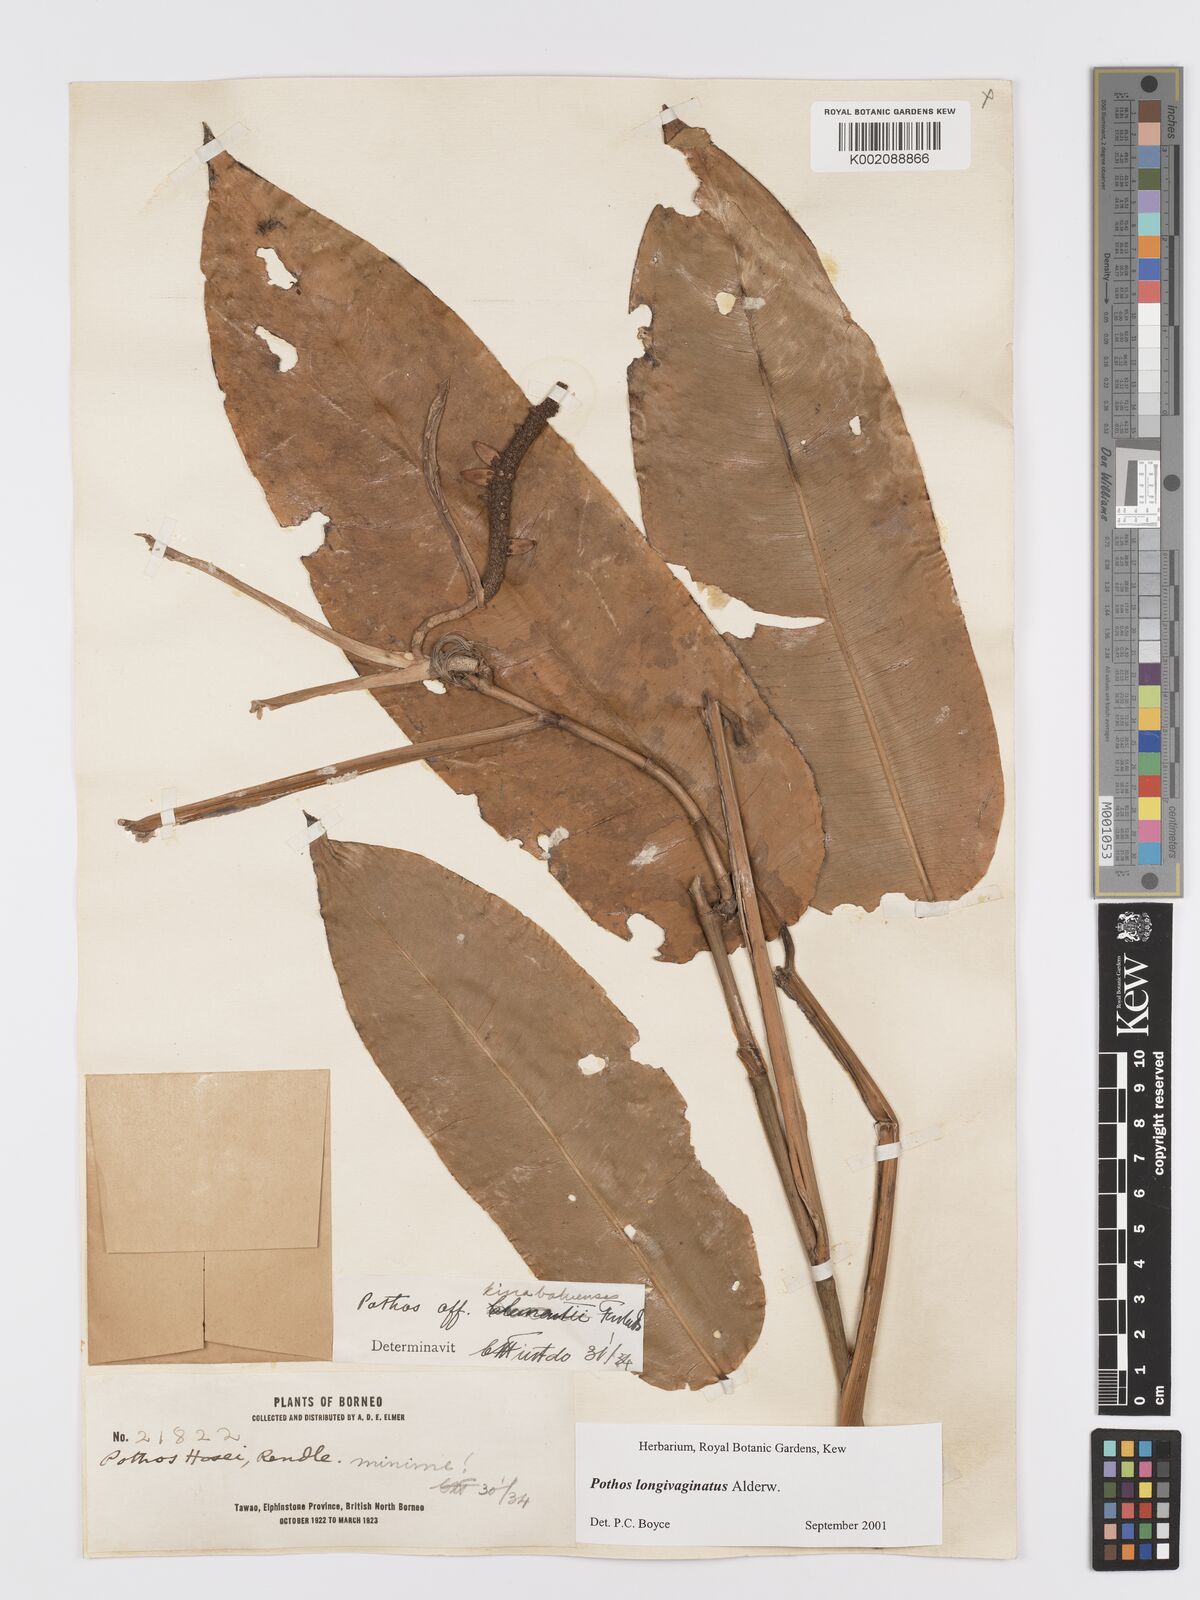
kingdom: Plantae
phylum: Tracheophyta
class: Liliopsida
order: Alismatales
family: Araceae
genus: Pothos
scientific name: Pothos longivaginatus
